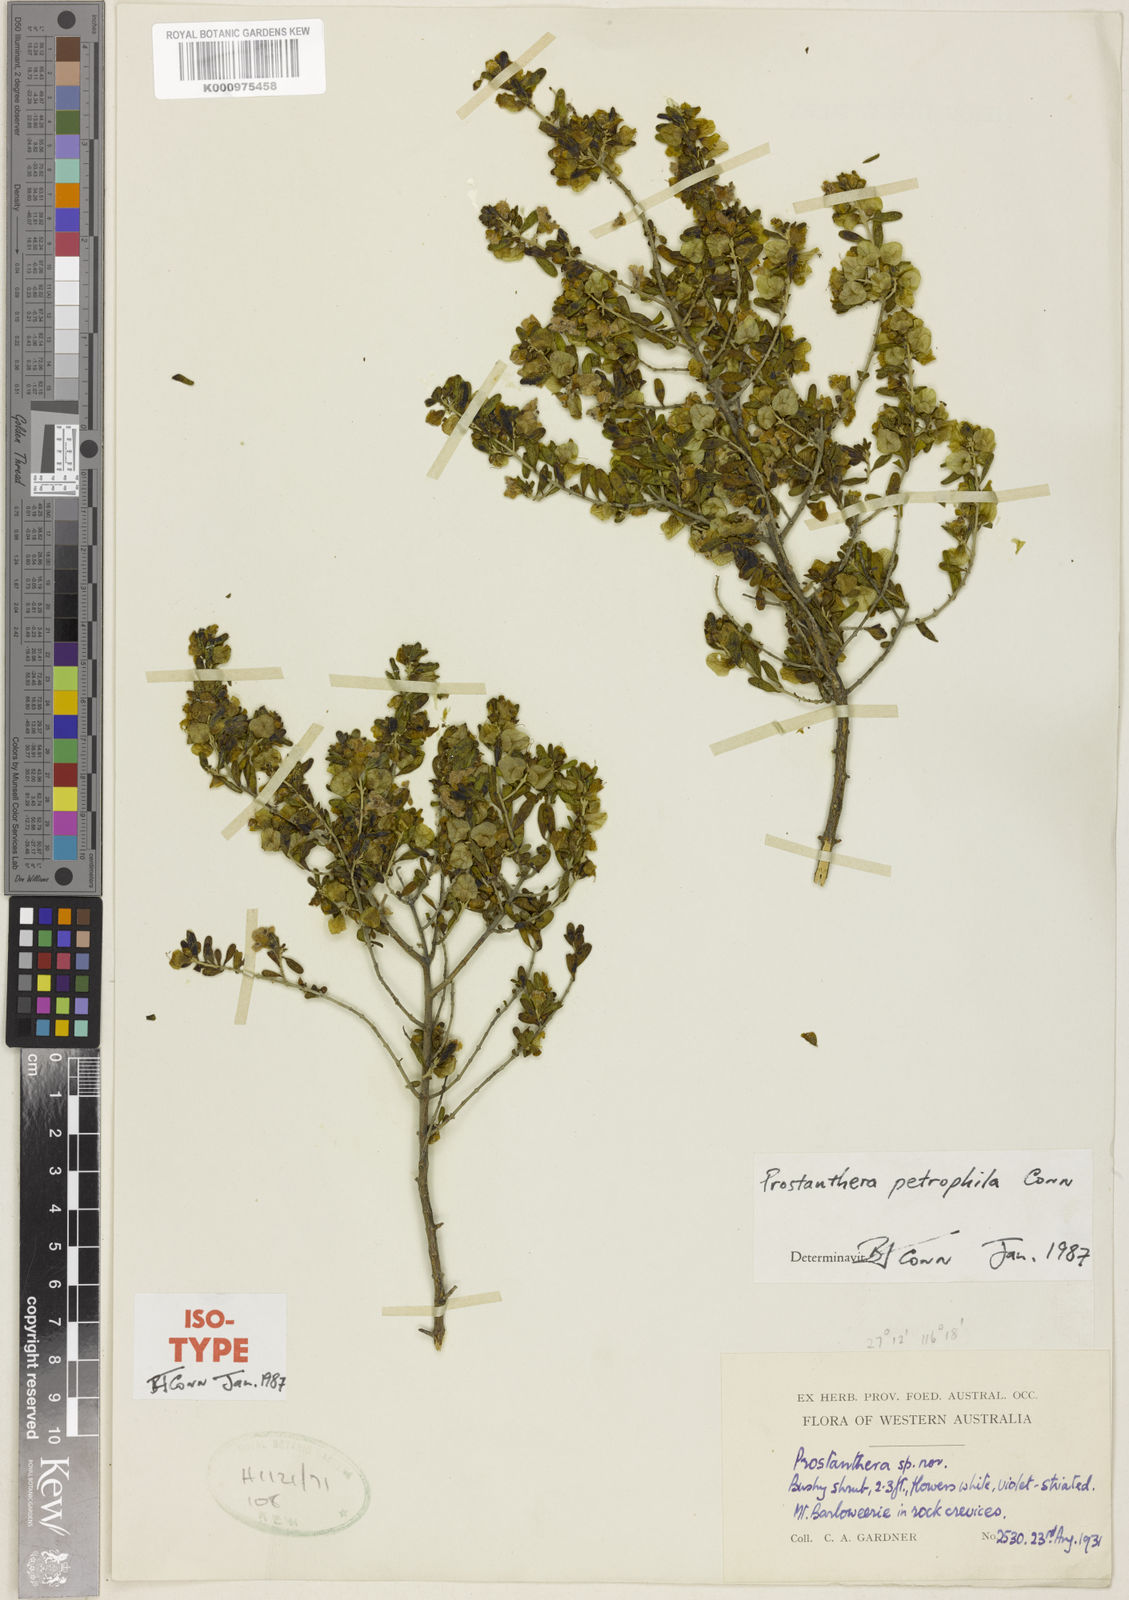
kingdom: Plantae
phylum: Tracheophyta
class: Magnoliopsida
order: Lamiales
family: Lamiaceae
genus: Prostanthera
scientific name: Prostanthera petrophila
